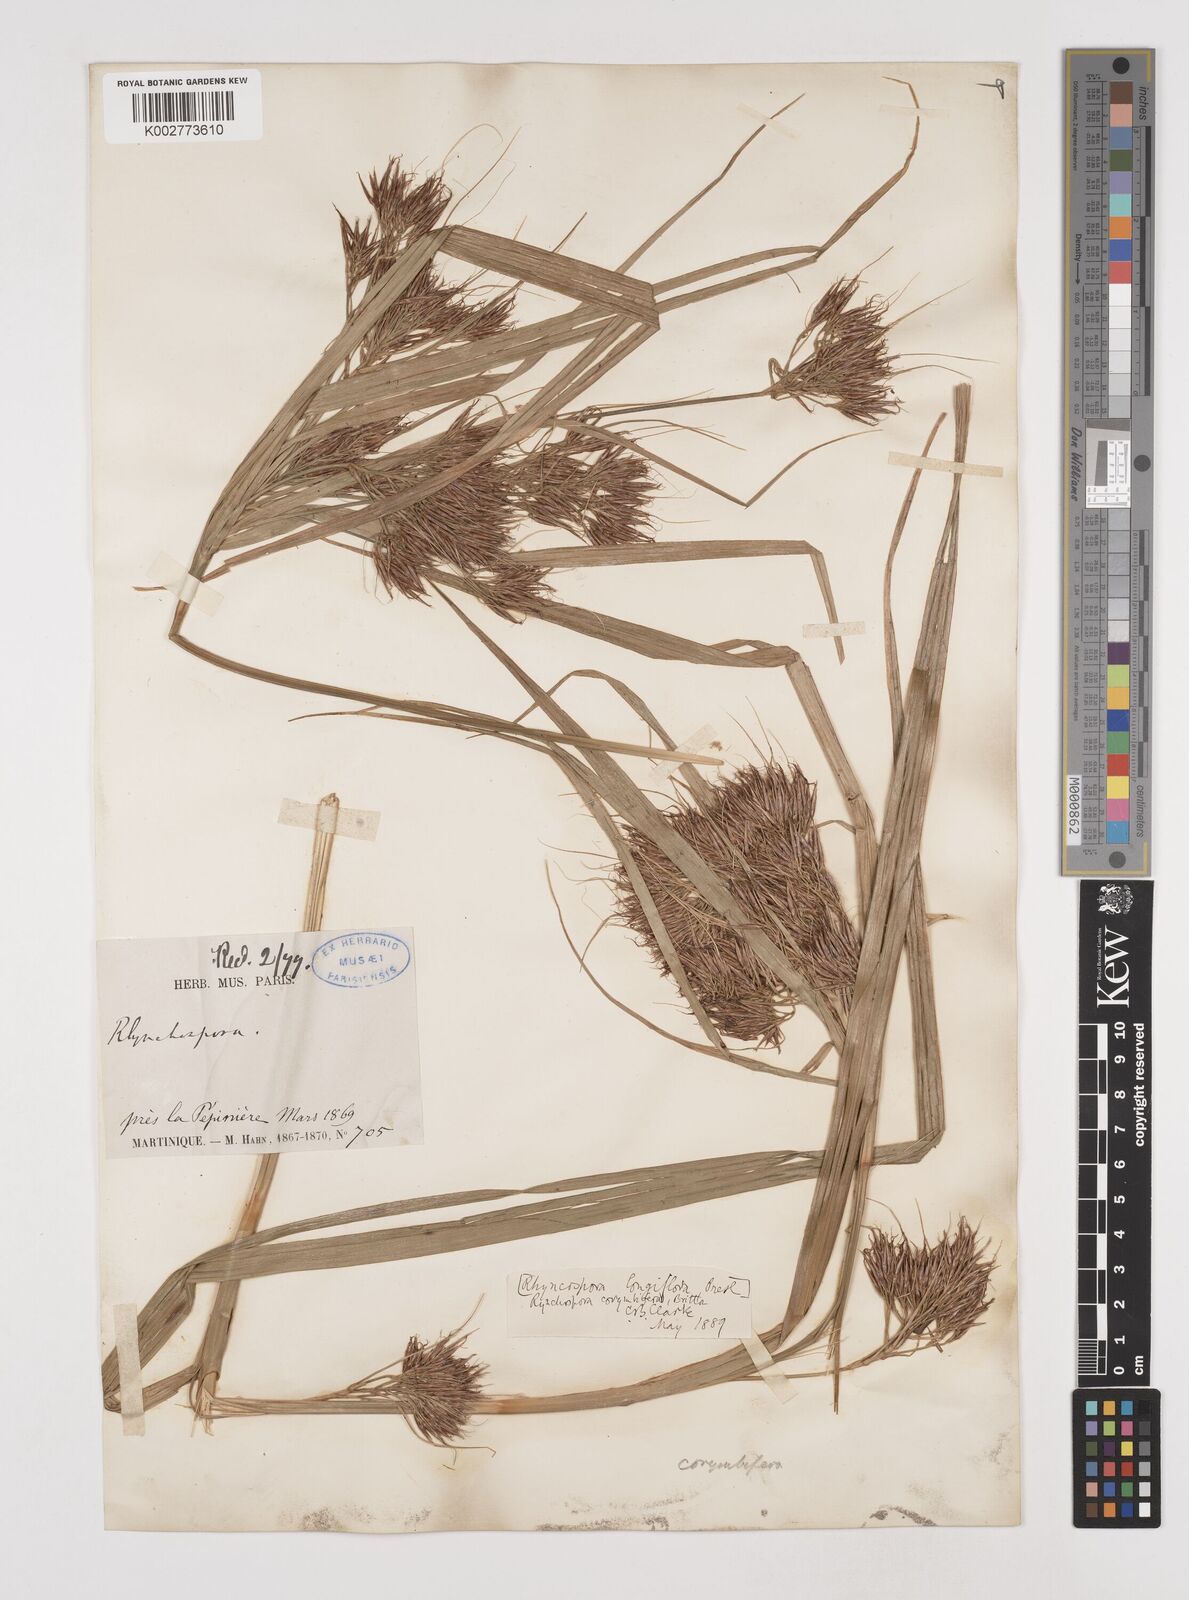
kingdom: Plantae
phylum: Tracheophyta
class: Liliopsida
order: Poales
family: Cyperaceae
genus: Rhynchospora
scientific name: Rhynchospora longiflora
